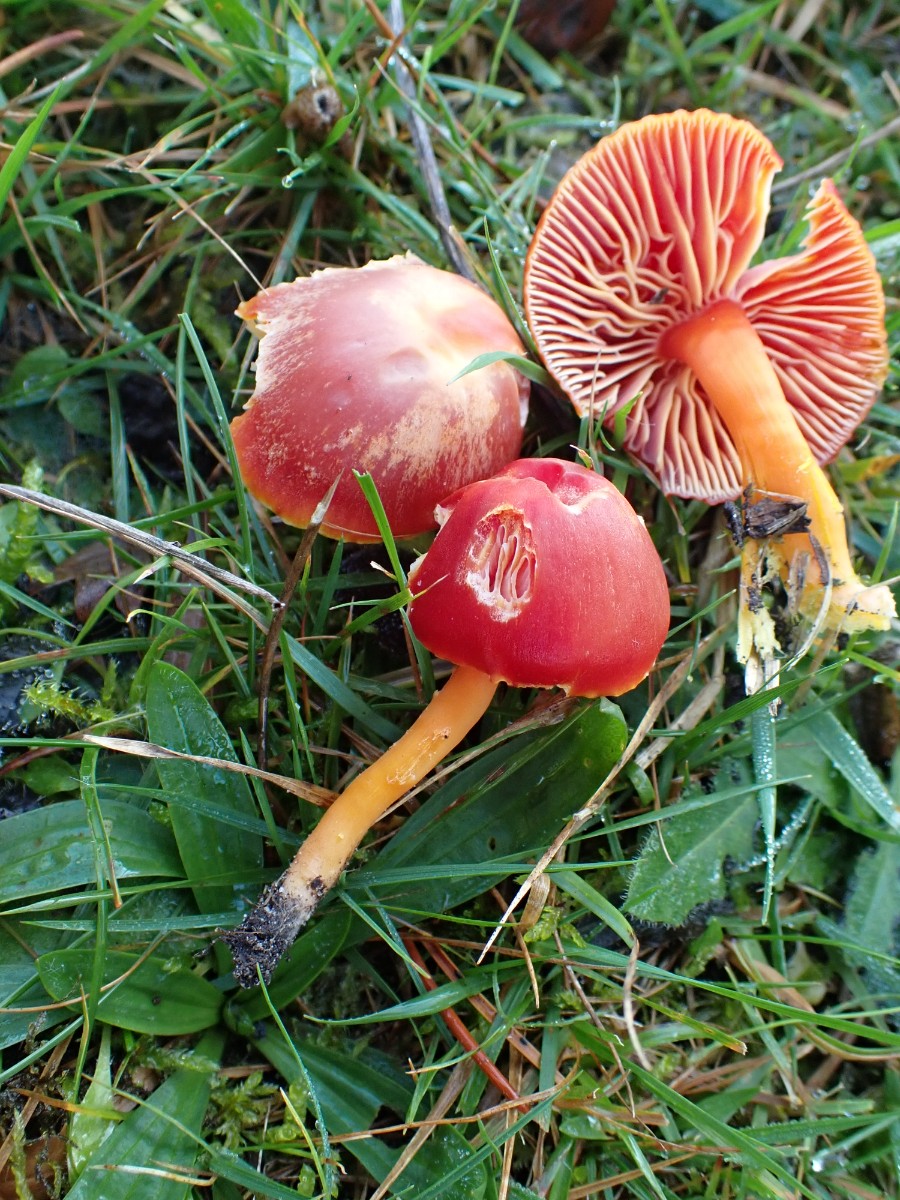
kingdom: Fungi
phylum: Basidiomycota
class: Agaricomycetes
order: Agaricales
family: Hygrophoraceae
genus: Hygrocybe
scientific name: Hygrocybe coccinea
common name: cinnober-vokshat
